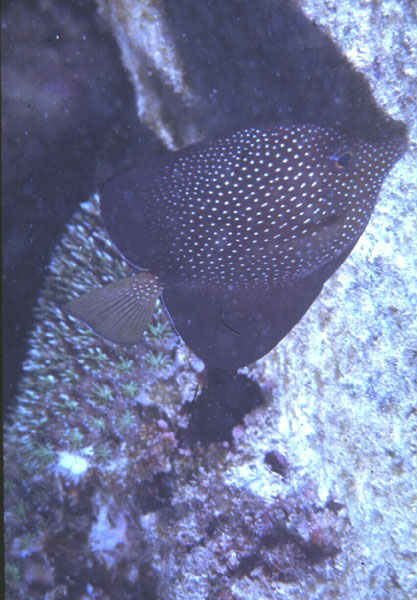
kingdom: Animalia
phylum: Chordata
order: Perciformes
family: Acanthuridae
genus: Zebrasoma
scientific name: Zebrasoma gemmatum
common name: Gem surgeonfish
